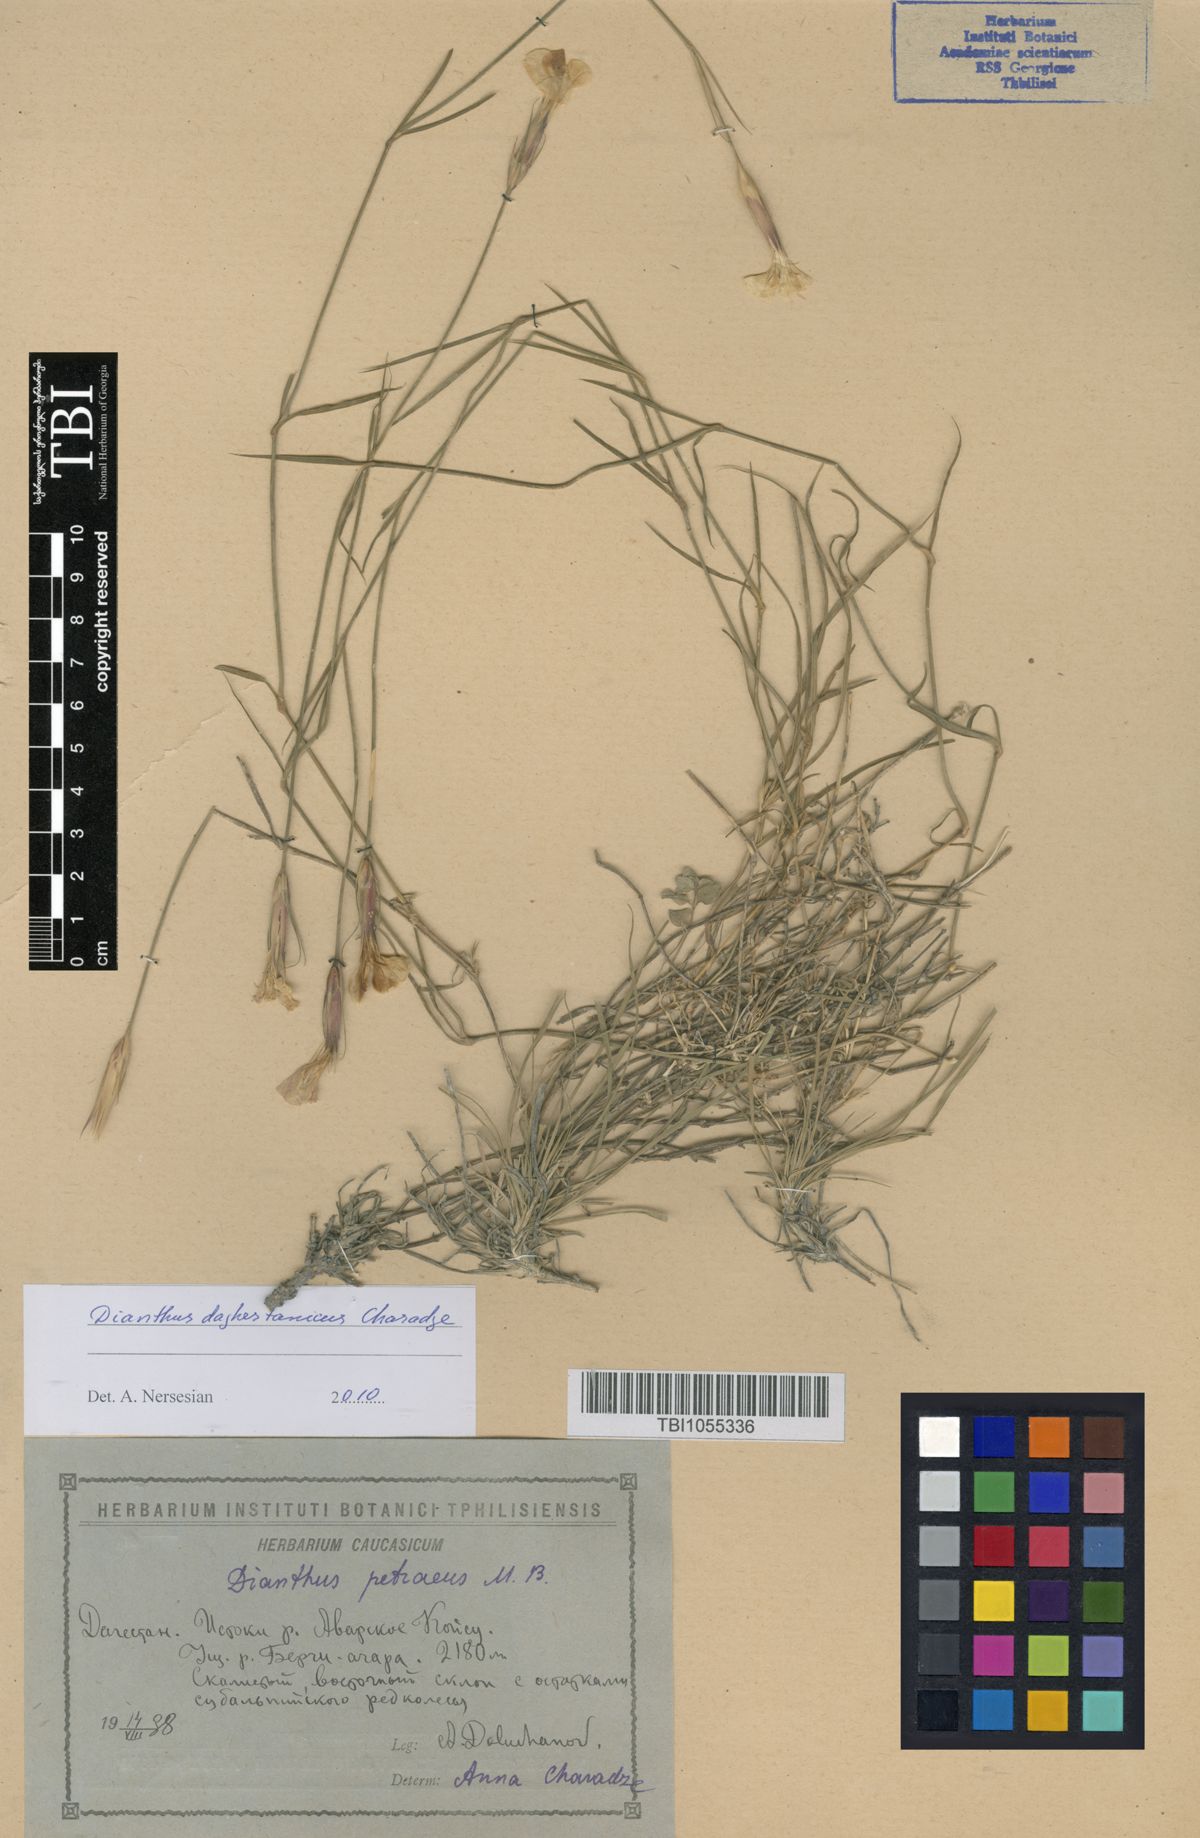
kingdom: Plantae
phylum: Tracheophyta
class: Magnoliopsida
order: Caryophyllales
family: Caryophyllaceae
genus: Dianthus
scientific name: Dianthus cretaceus
